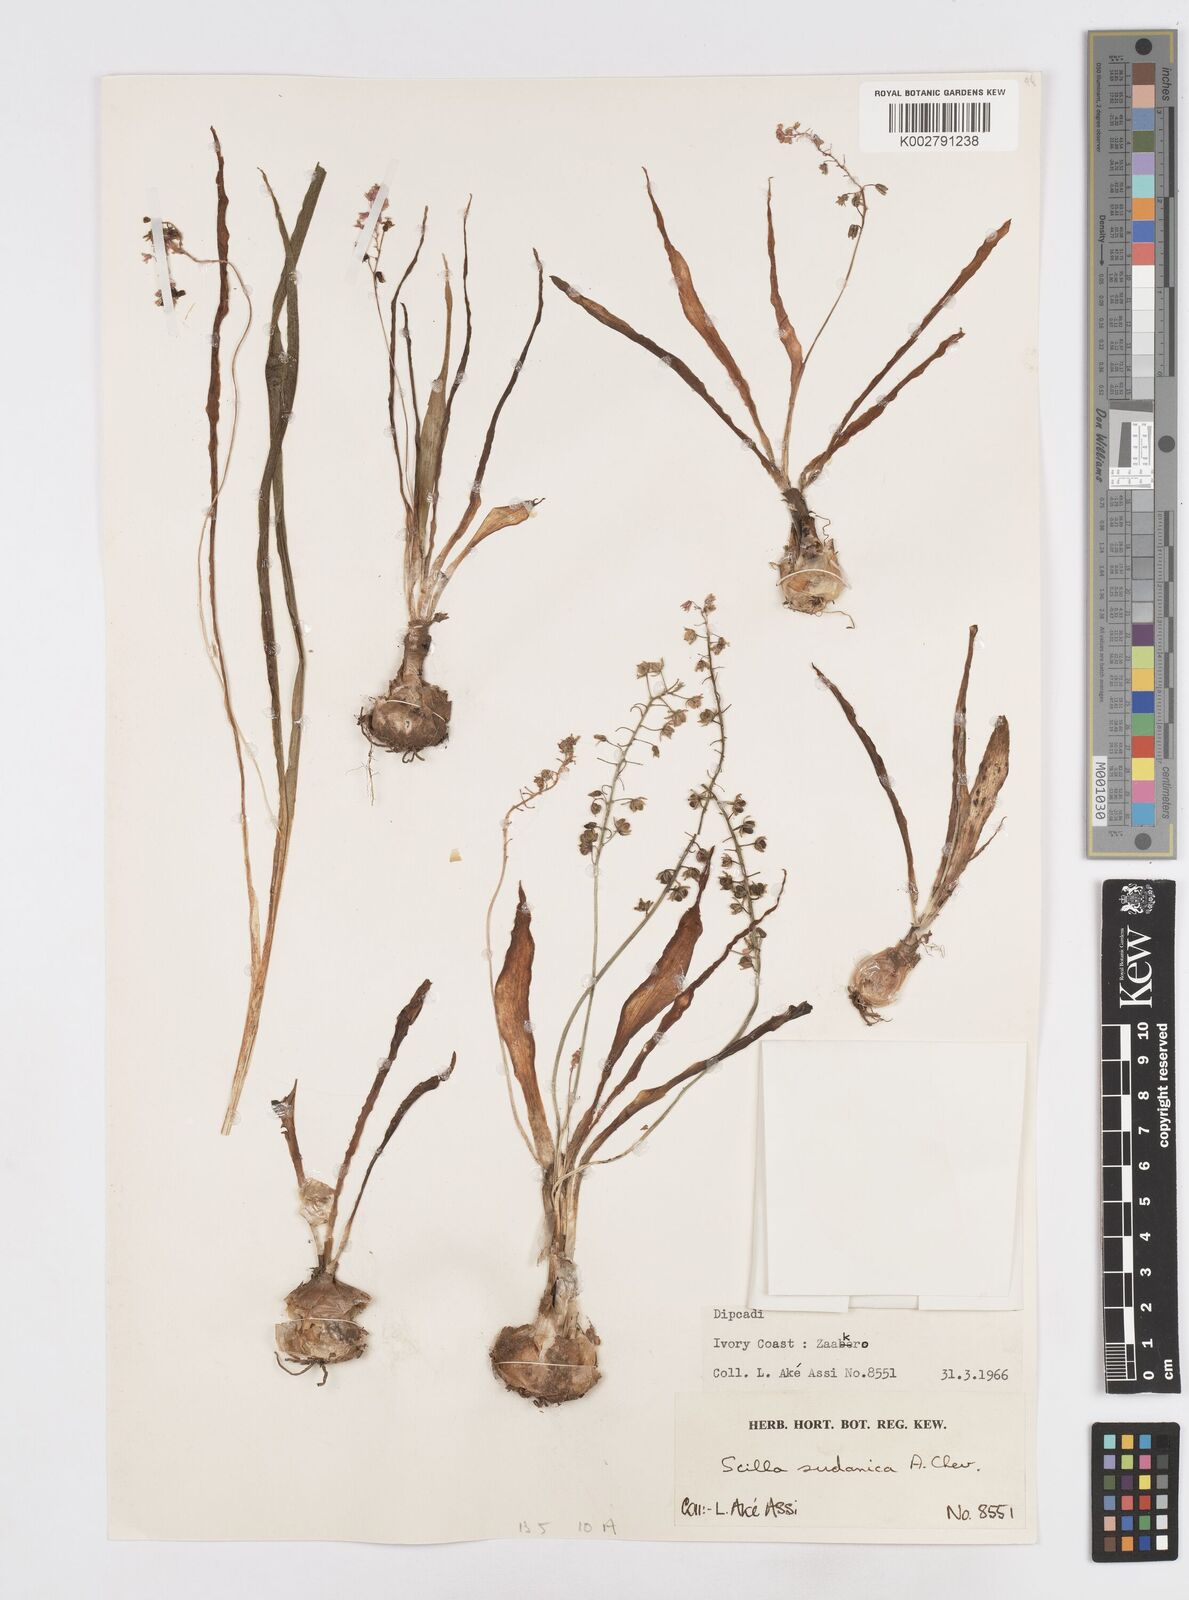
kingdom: Plantae
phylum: Tracheophyta
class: Liliopsida
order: Asparagales
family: Asparagaceae
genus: Ledebouria
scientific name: Ledebouria sudanica
